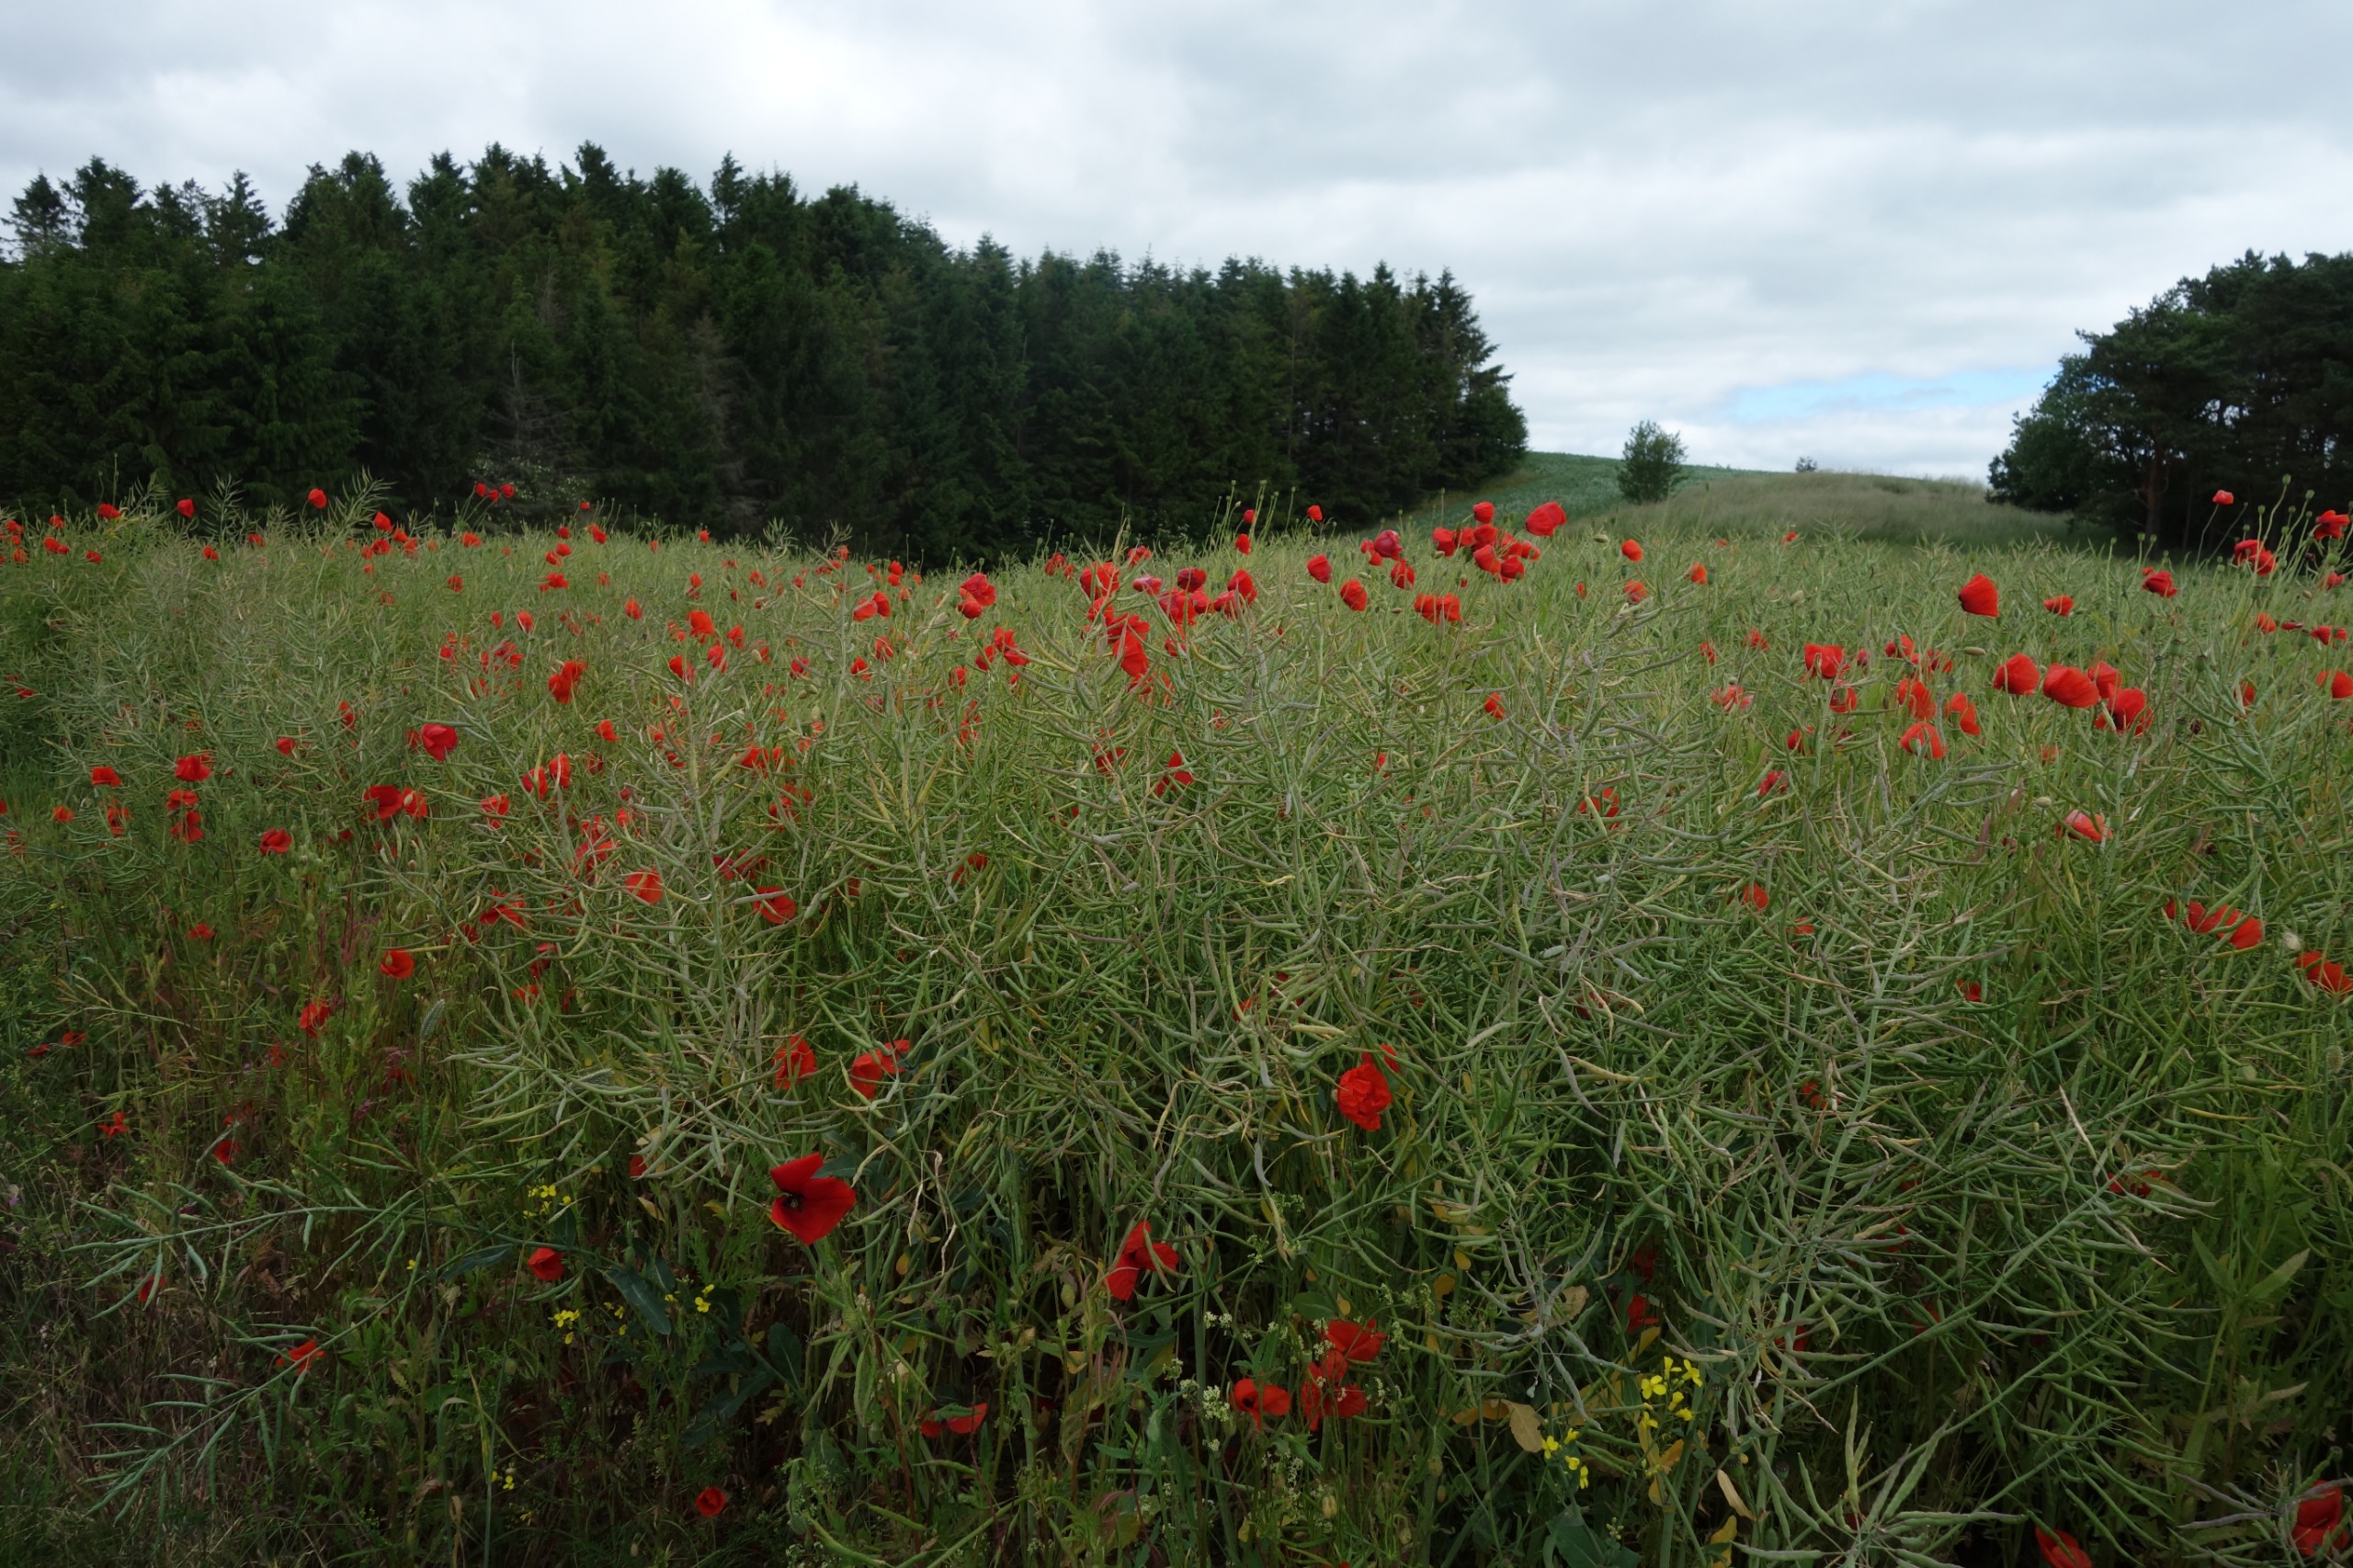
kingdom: Plantae
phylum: Tracheophyta
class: Magnoliopsida
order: Ranunculales
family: Papaveraceae
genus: Papaver
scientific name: Papaver rhoeas
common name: Korn-valmue
